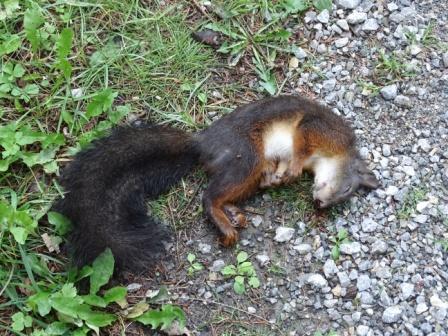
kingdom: Animalia
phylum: Chordata
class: Mammalia
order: Rodentia
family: Sciuridae
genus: Sciurus
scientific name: Sciurus vulgaris
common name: Eurasian red squirrel
